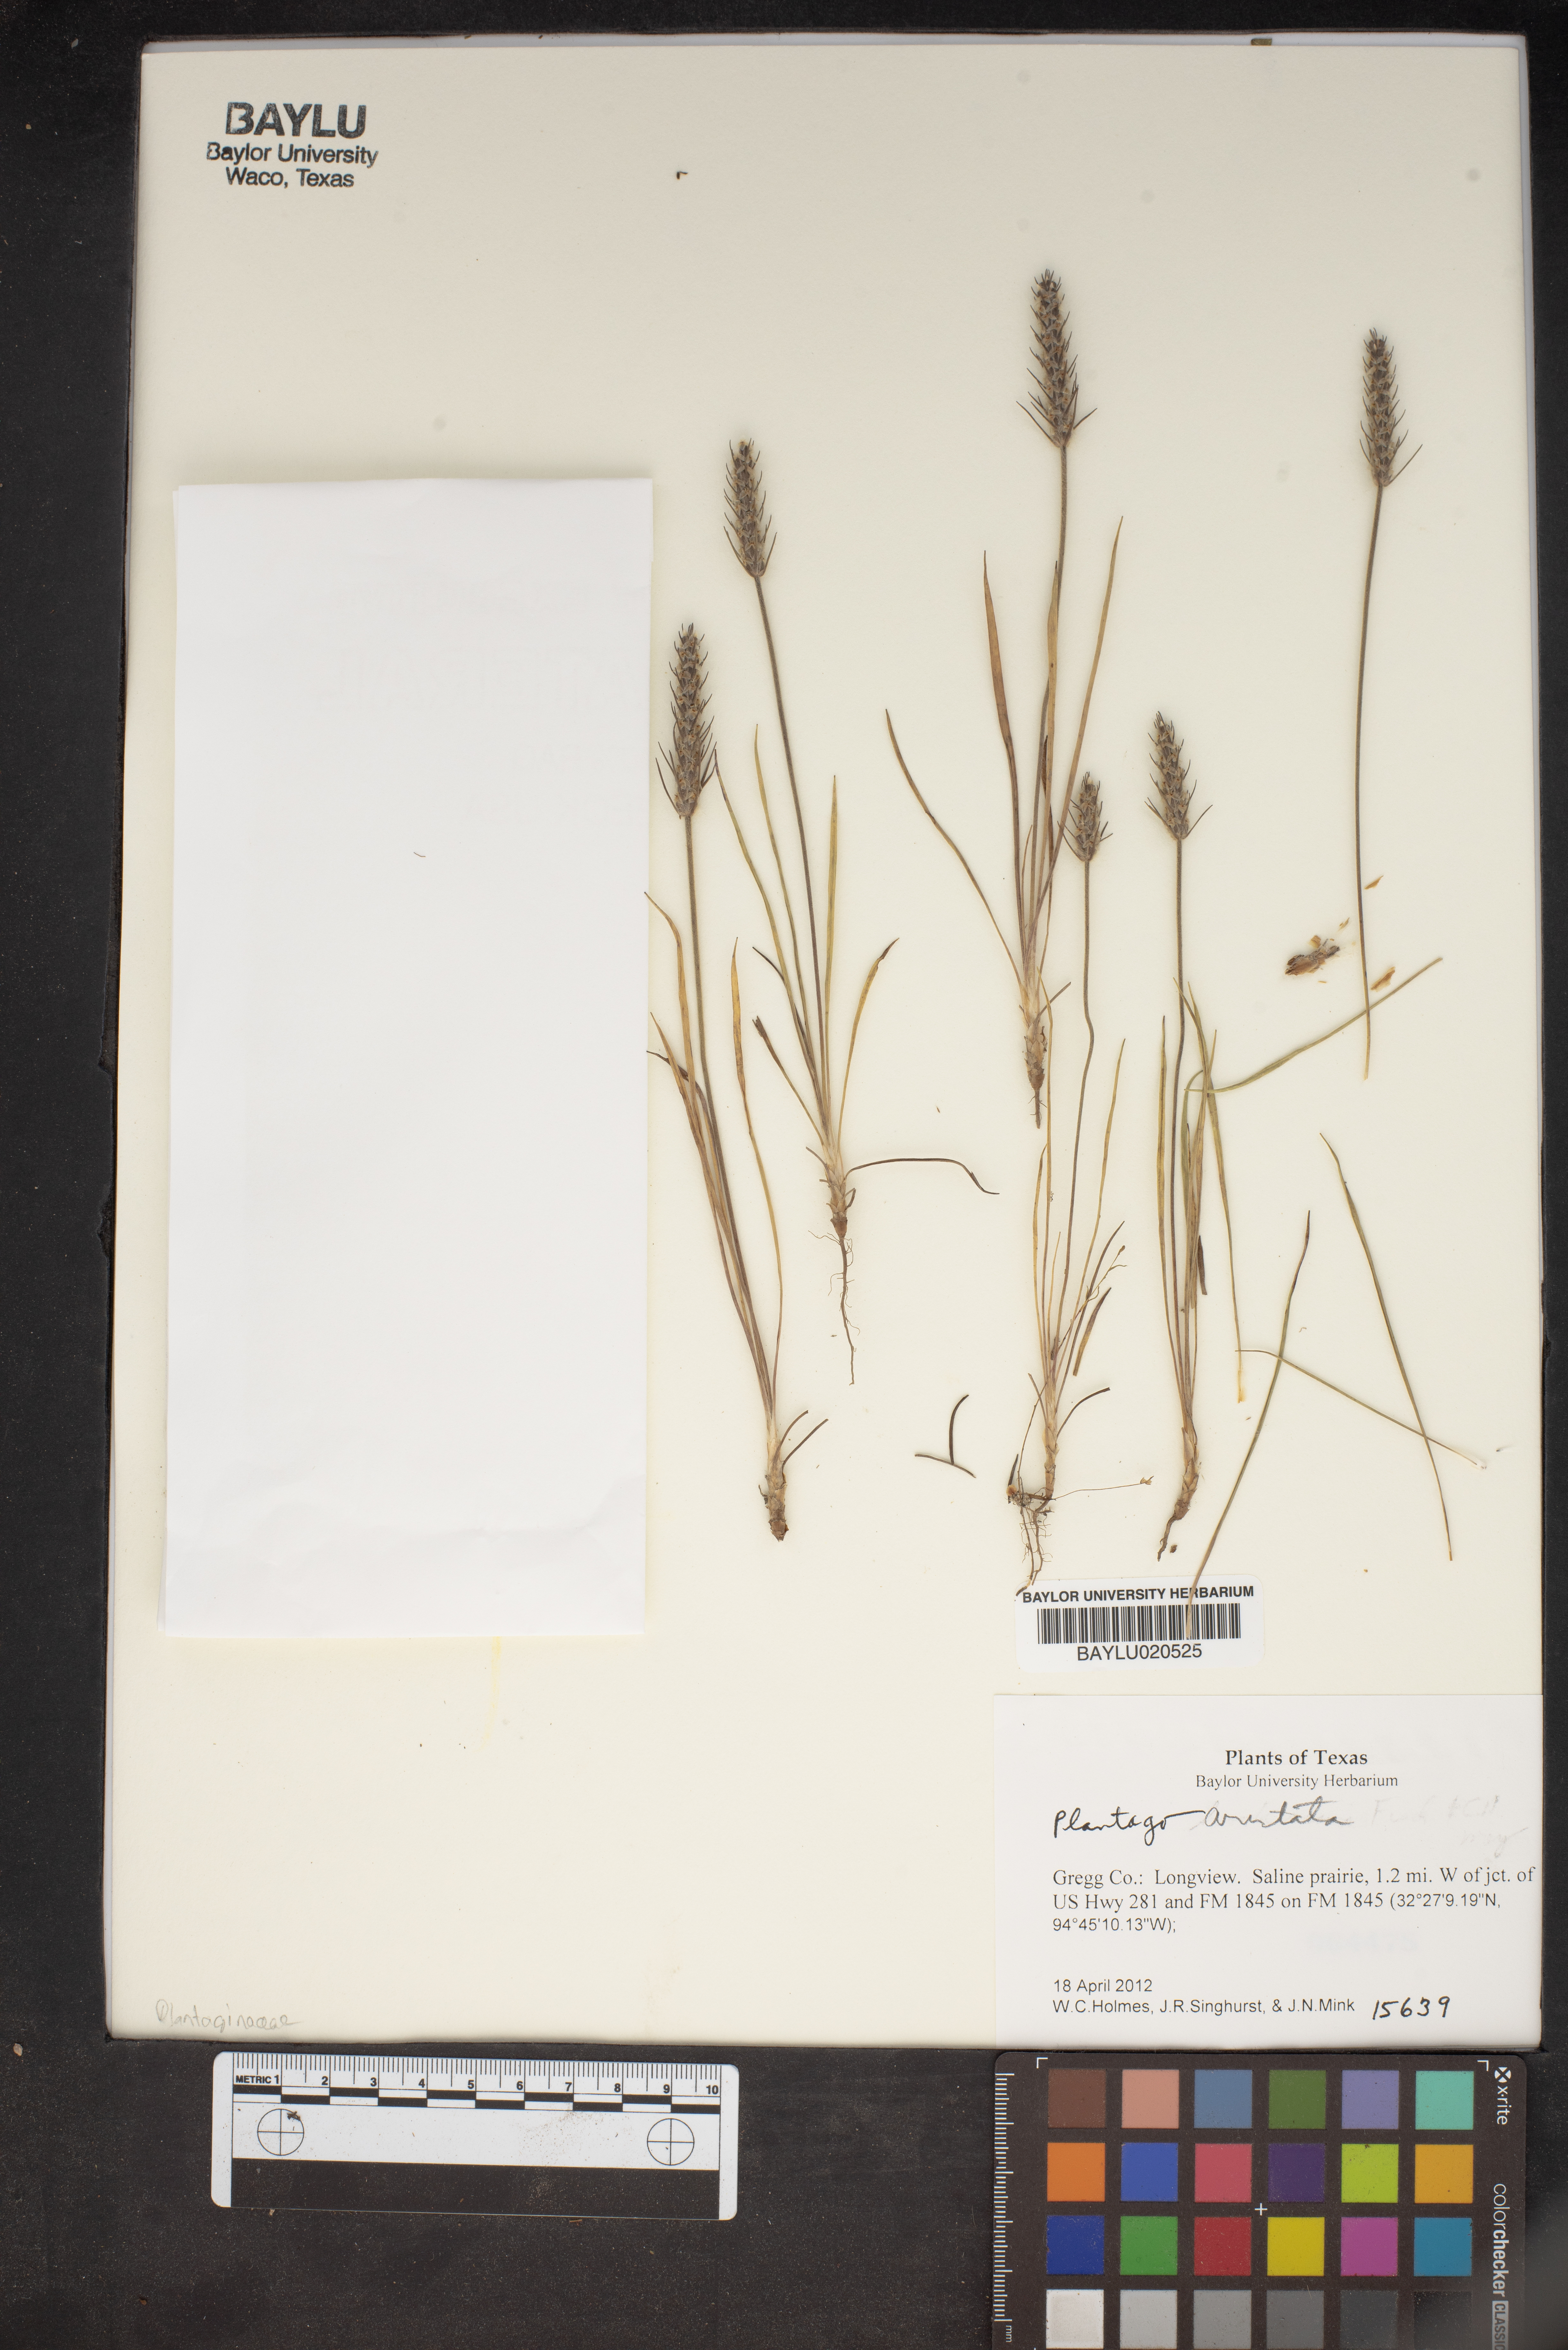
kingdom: Plantae
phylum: Tracheophyta
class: Magnoliopsida
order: Lamiales
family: Plantaginaceae
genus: Plantago
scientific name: Plantago aristata
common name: Bracted plantain
